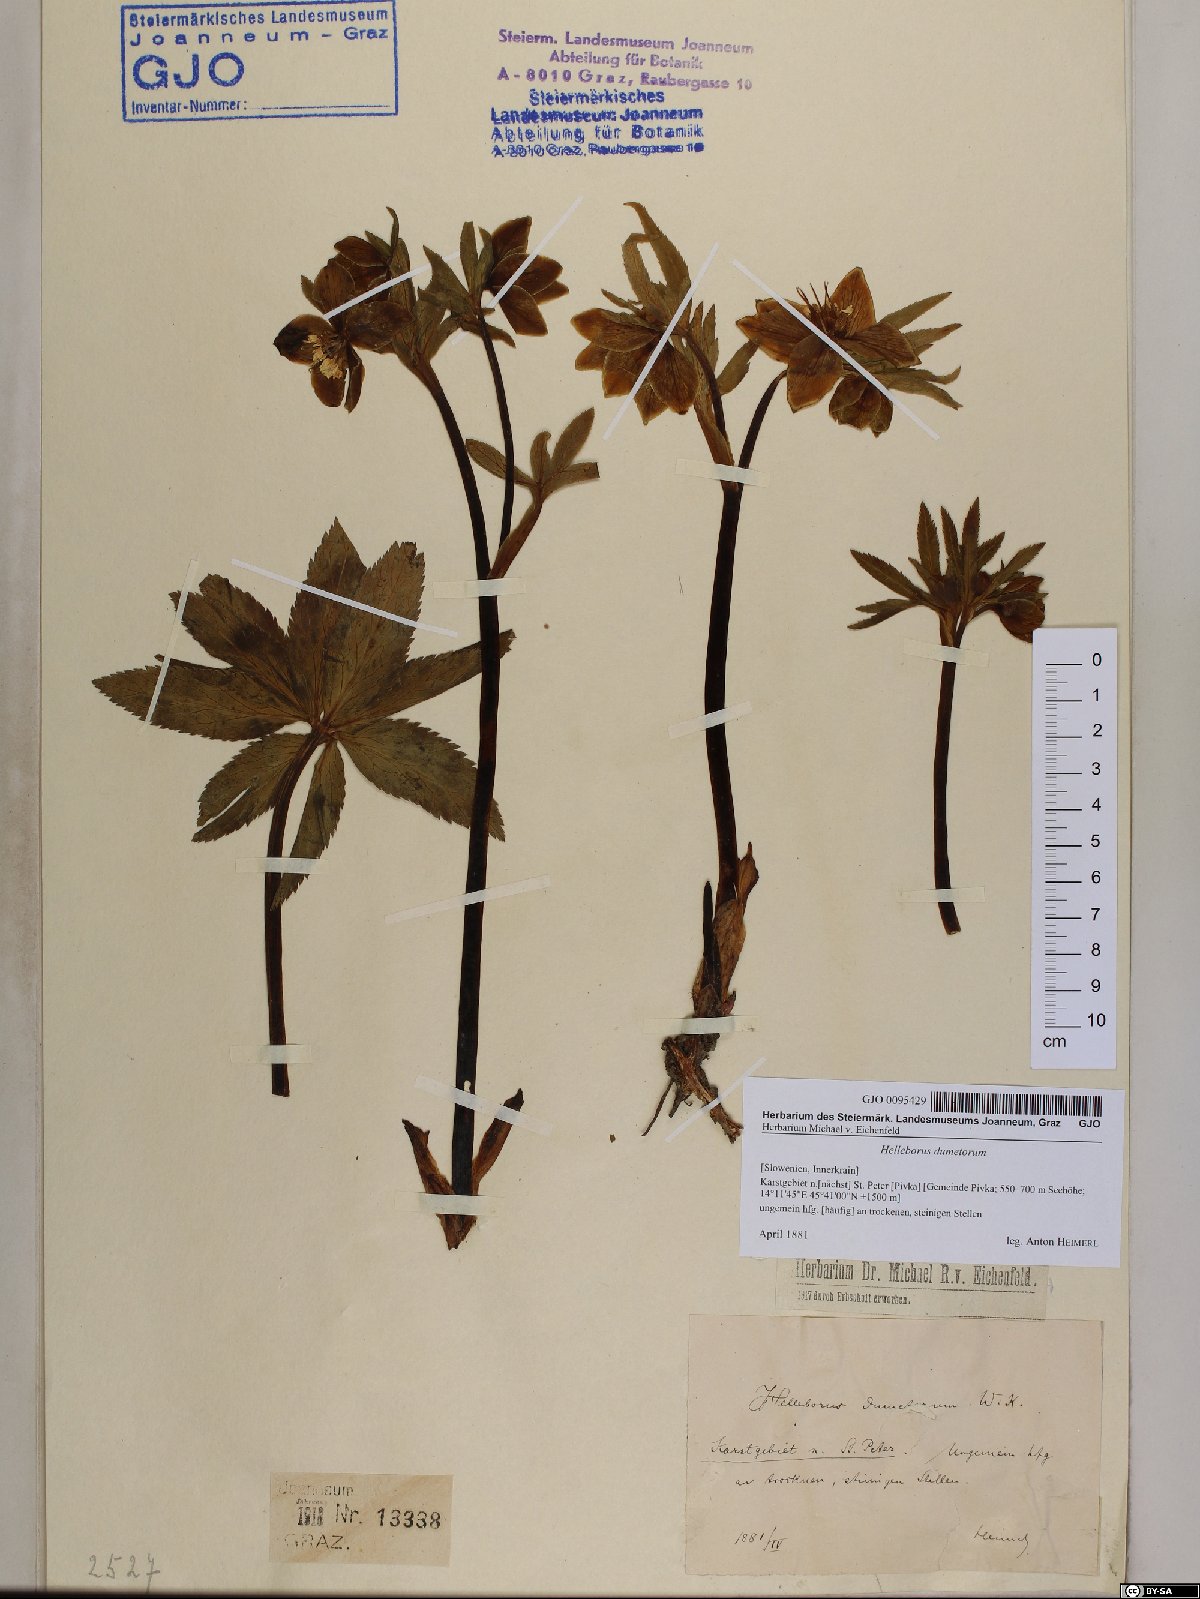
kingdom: Plantae
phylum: Tracheophyta
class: Magnoliopsida
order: Ranunculales
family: Ranunculaceae
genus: Helleborus
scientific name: Helleborus dumetorum
